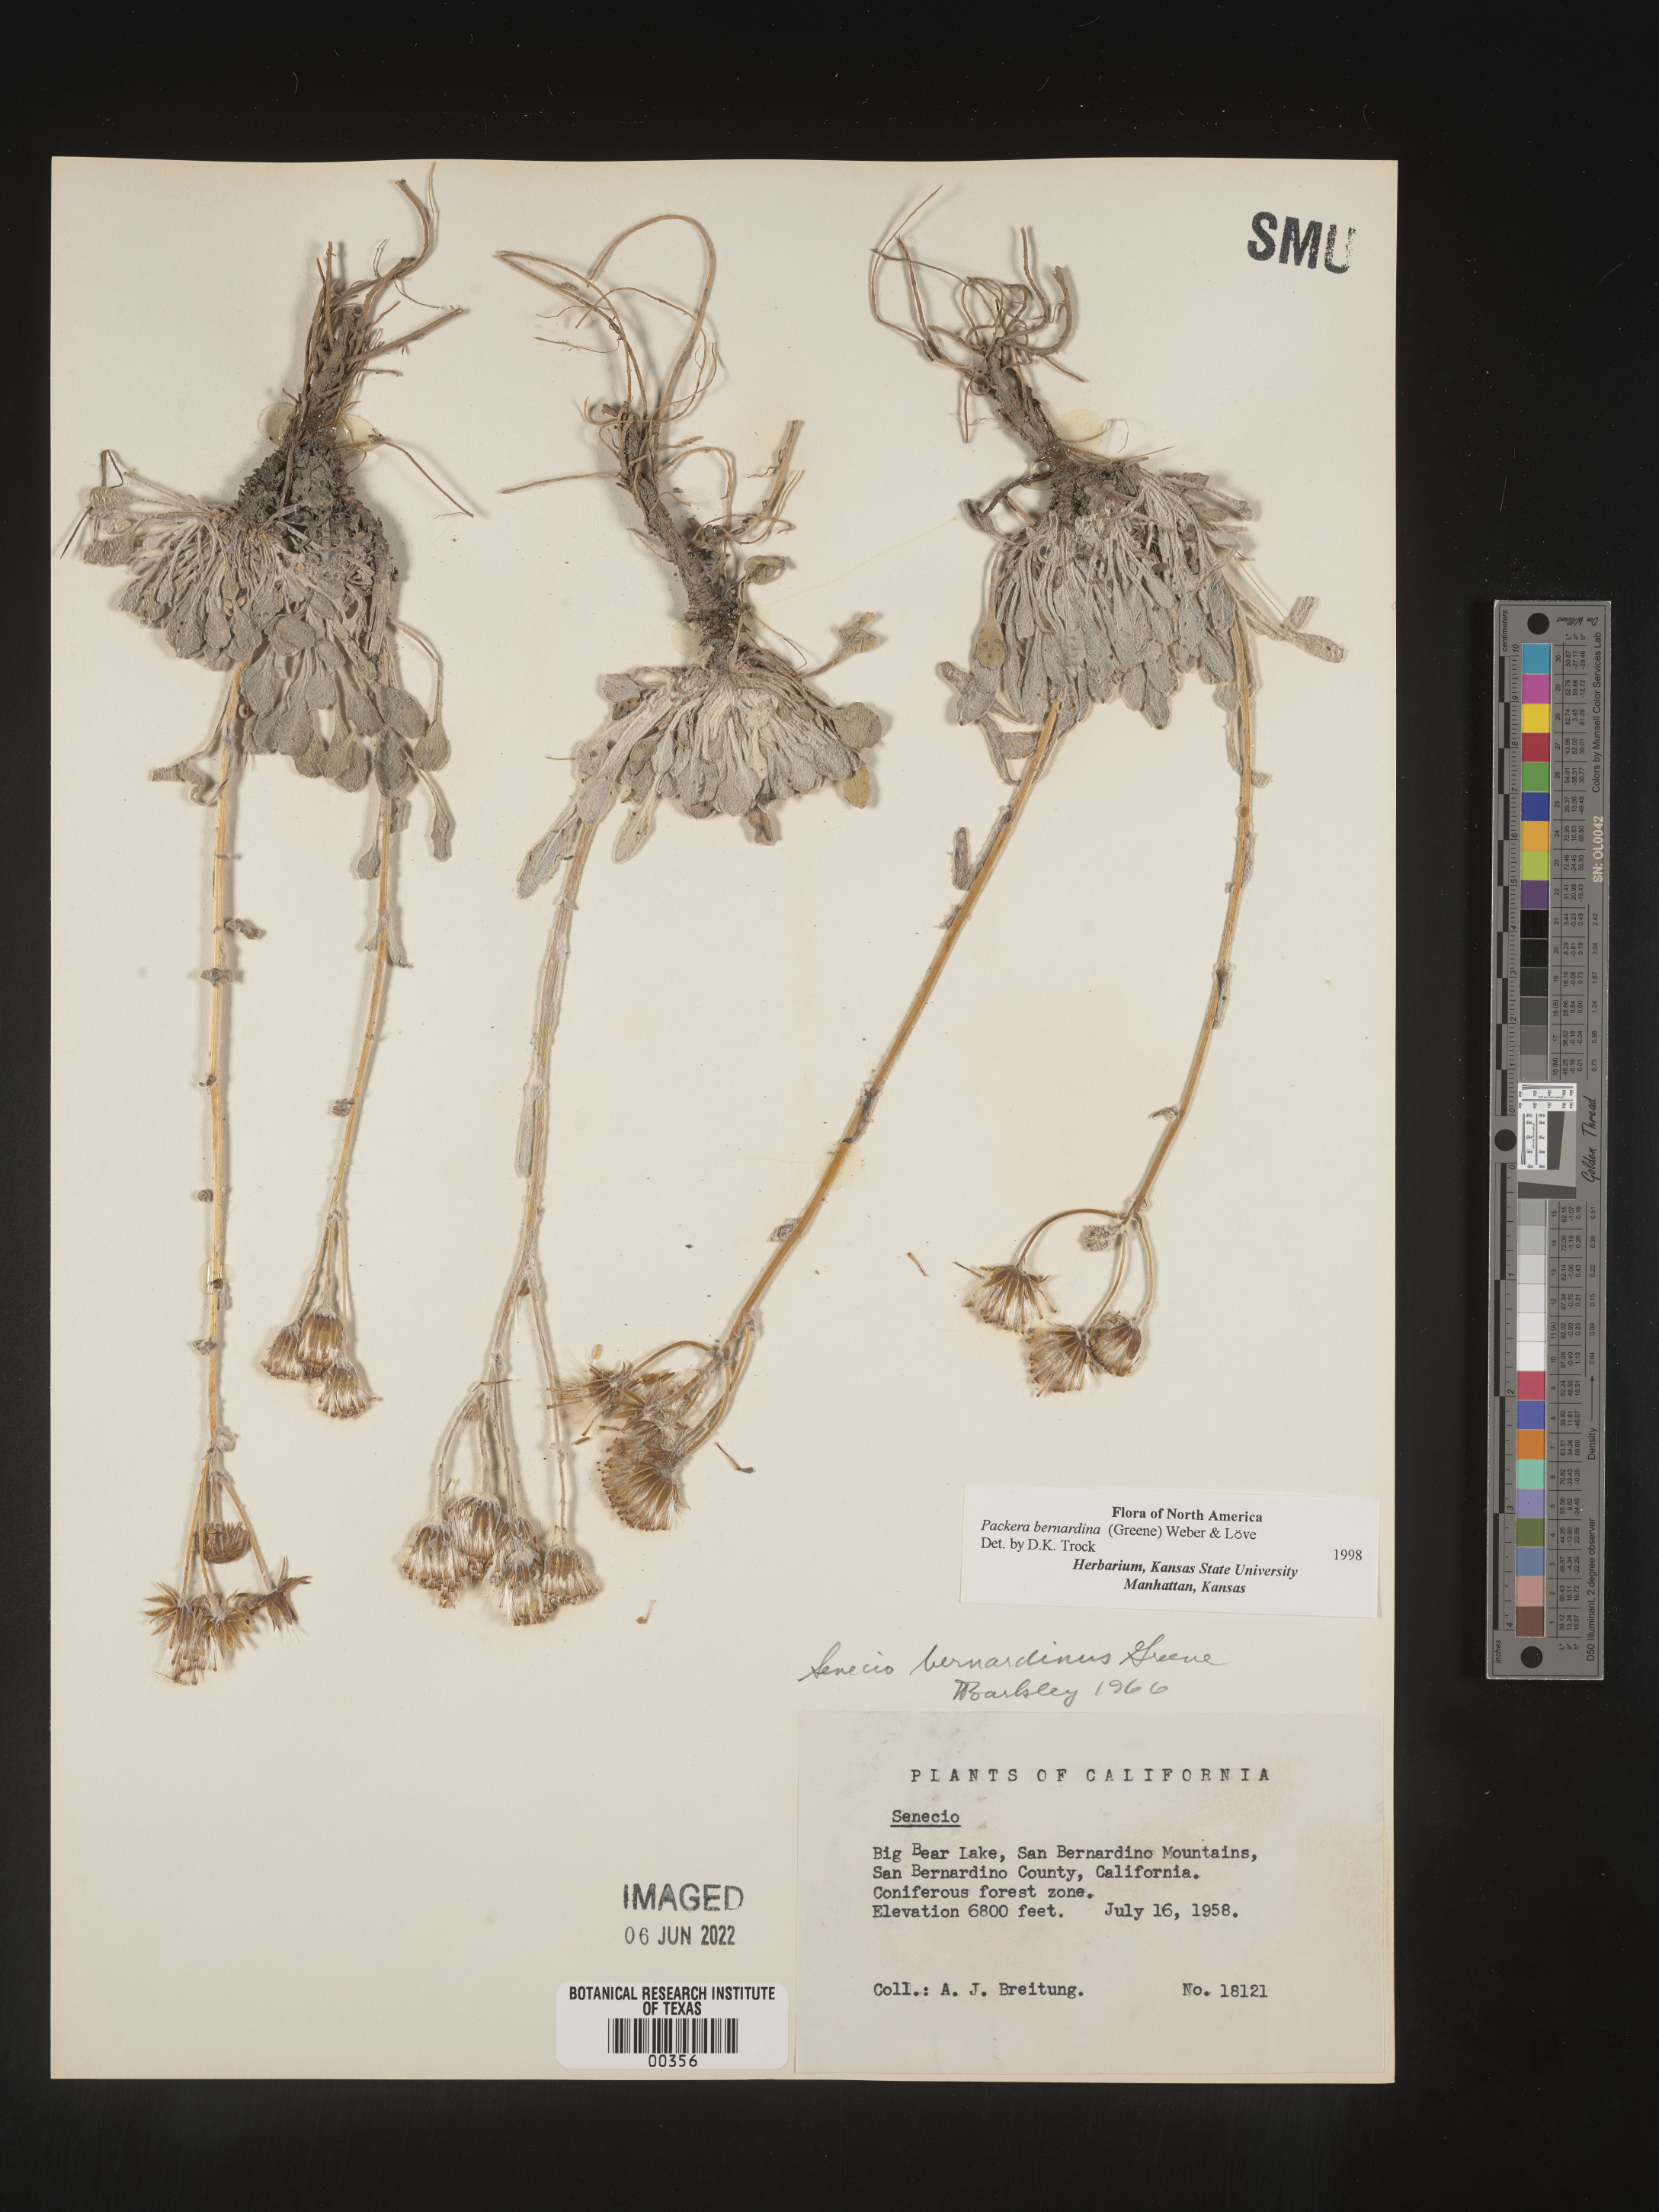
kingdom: Plantae
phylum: Tracheophyta
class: Magnoliopsida
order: Asterales
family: Asteraceae
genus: Packera
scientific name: Packera bernardina
